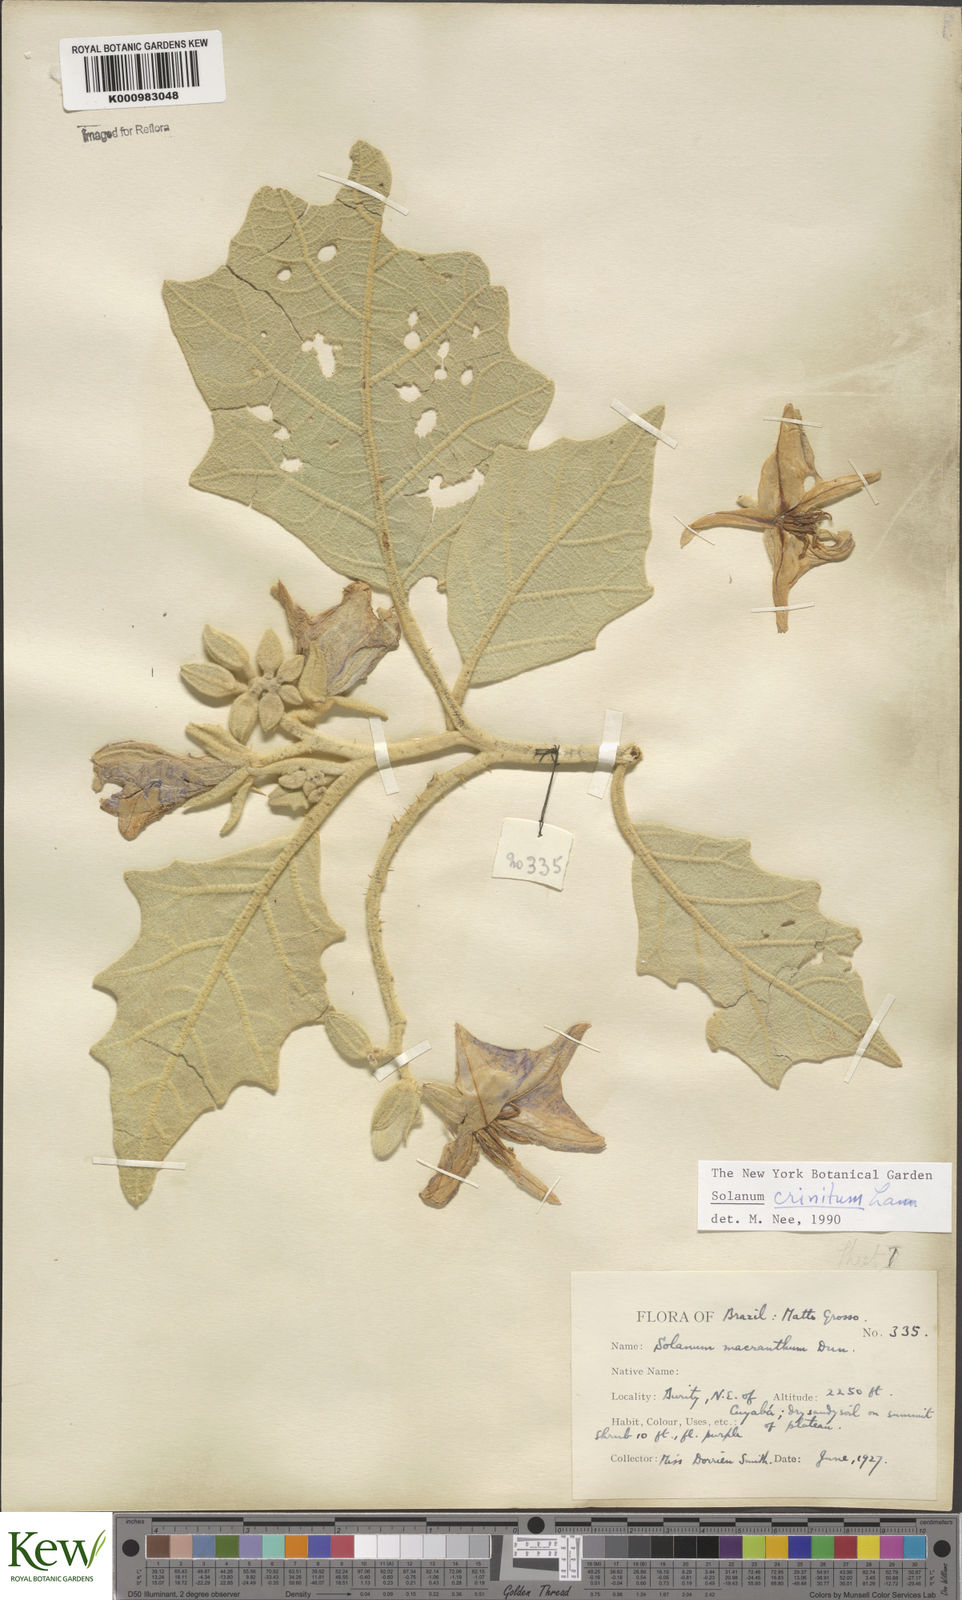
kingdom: Plantae
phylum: Tracheophyta
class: Magnoliopsida
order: Solanales
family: Solanaceae
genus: Solanum
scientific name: Solanum crinitum
